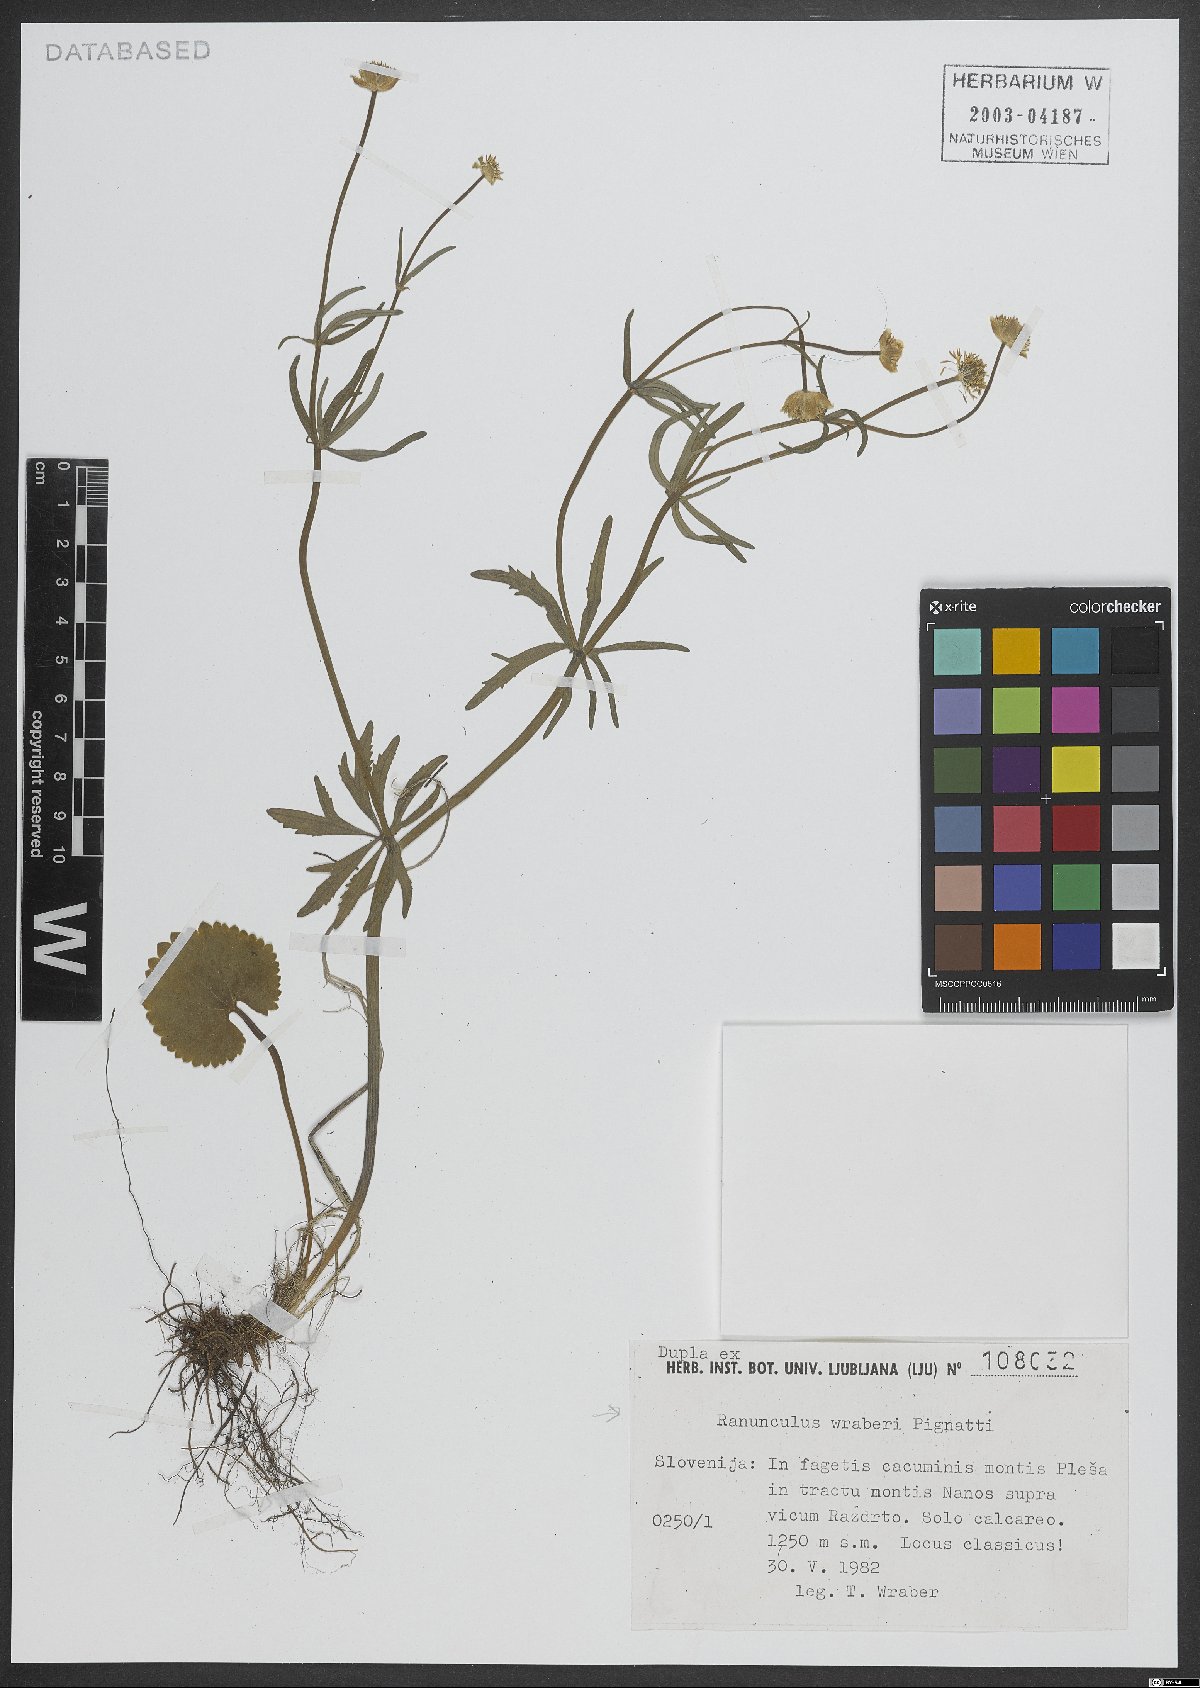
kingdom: Plantae
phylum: Tracheophyta
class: Magnoliopsida
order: Ranunculales
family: Ranunculaceae
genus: Ranunculus
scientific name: Ranunculus wraberi
